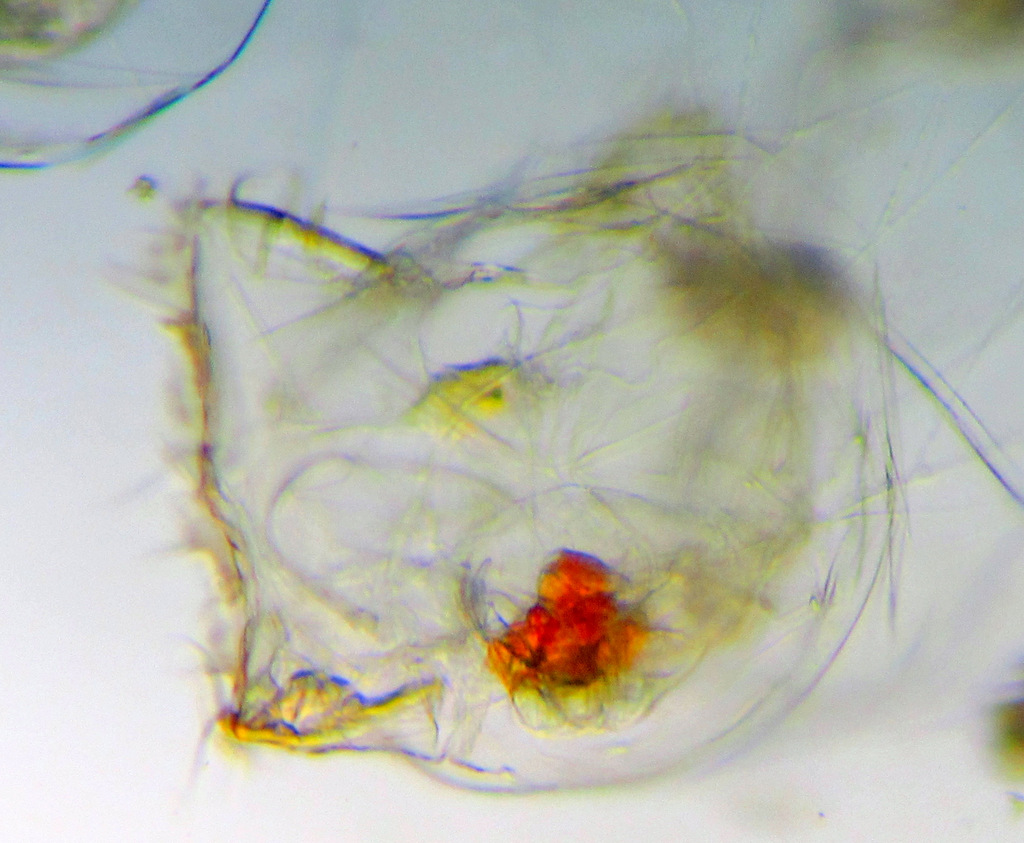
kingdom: Animalia
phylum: Rotifera
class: Eurotatoria
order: Ploima
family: Asplanchnidae
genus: Asplanchna
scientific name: Asplanchna priodonta
